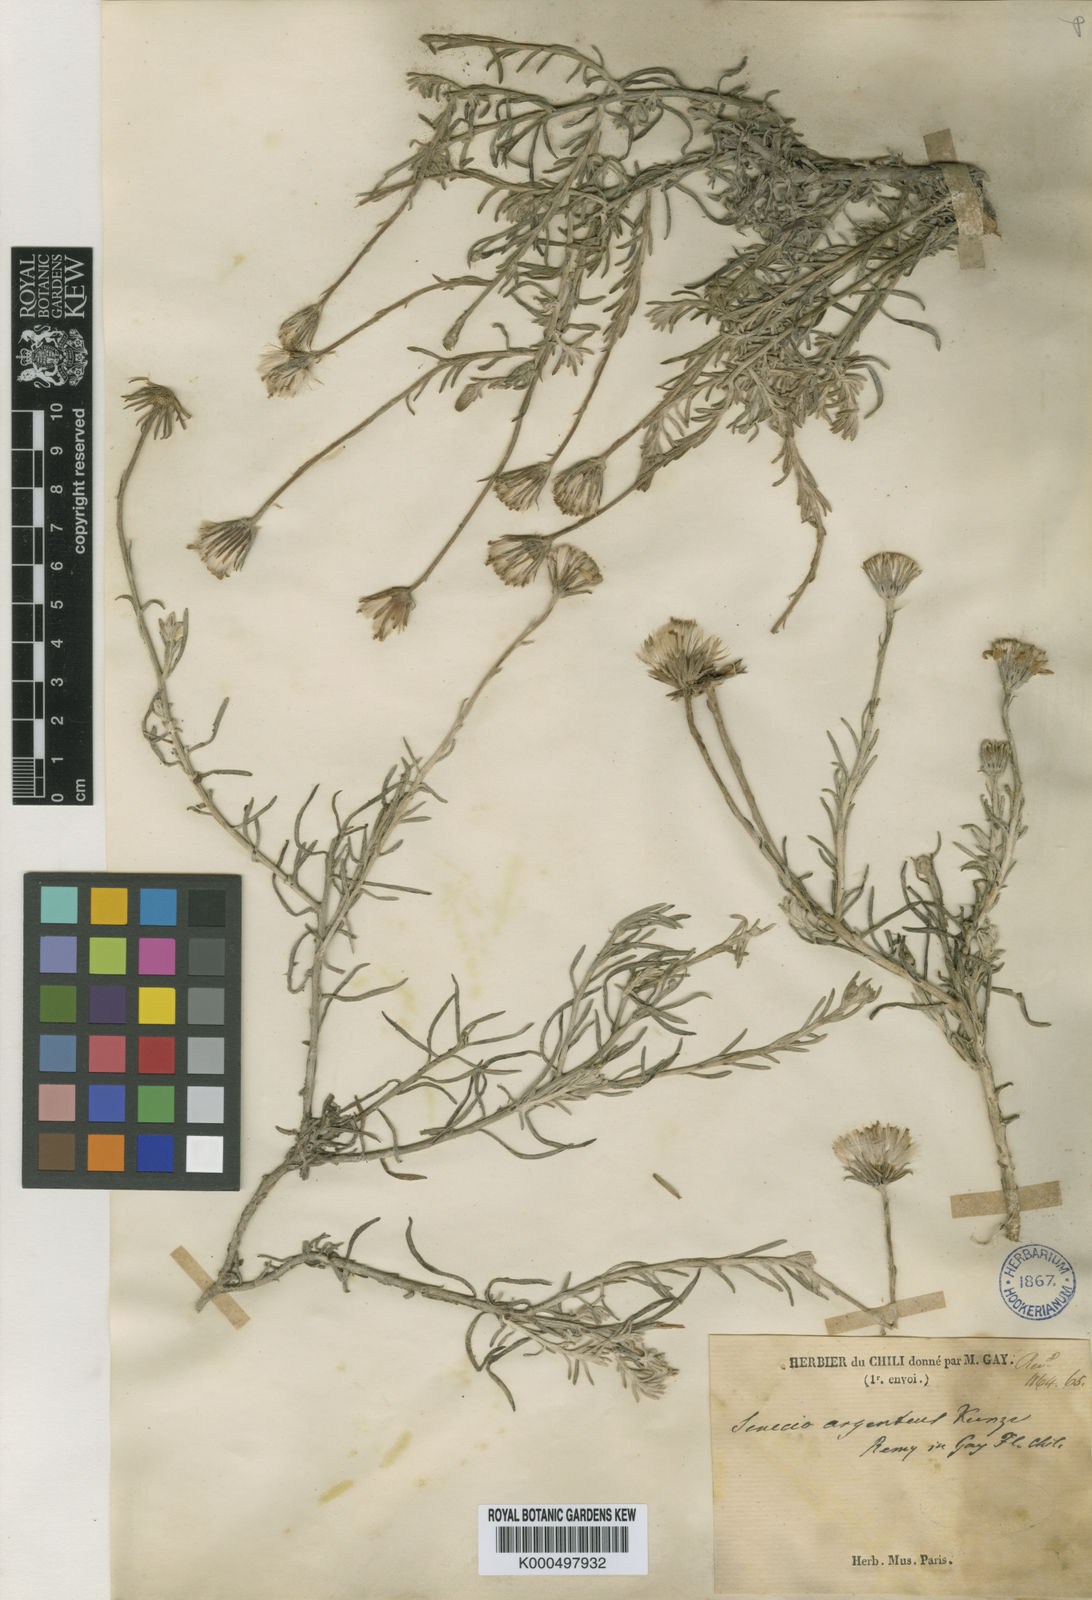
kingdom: Plantae
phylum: Tracheophyta
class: Magnoliopsida
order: Asterales
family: Asteraceae
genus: Senecio
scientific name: Senecio
